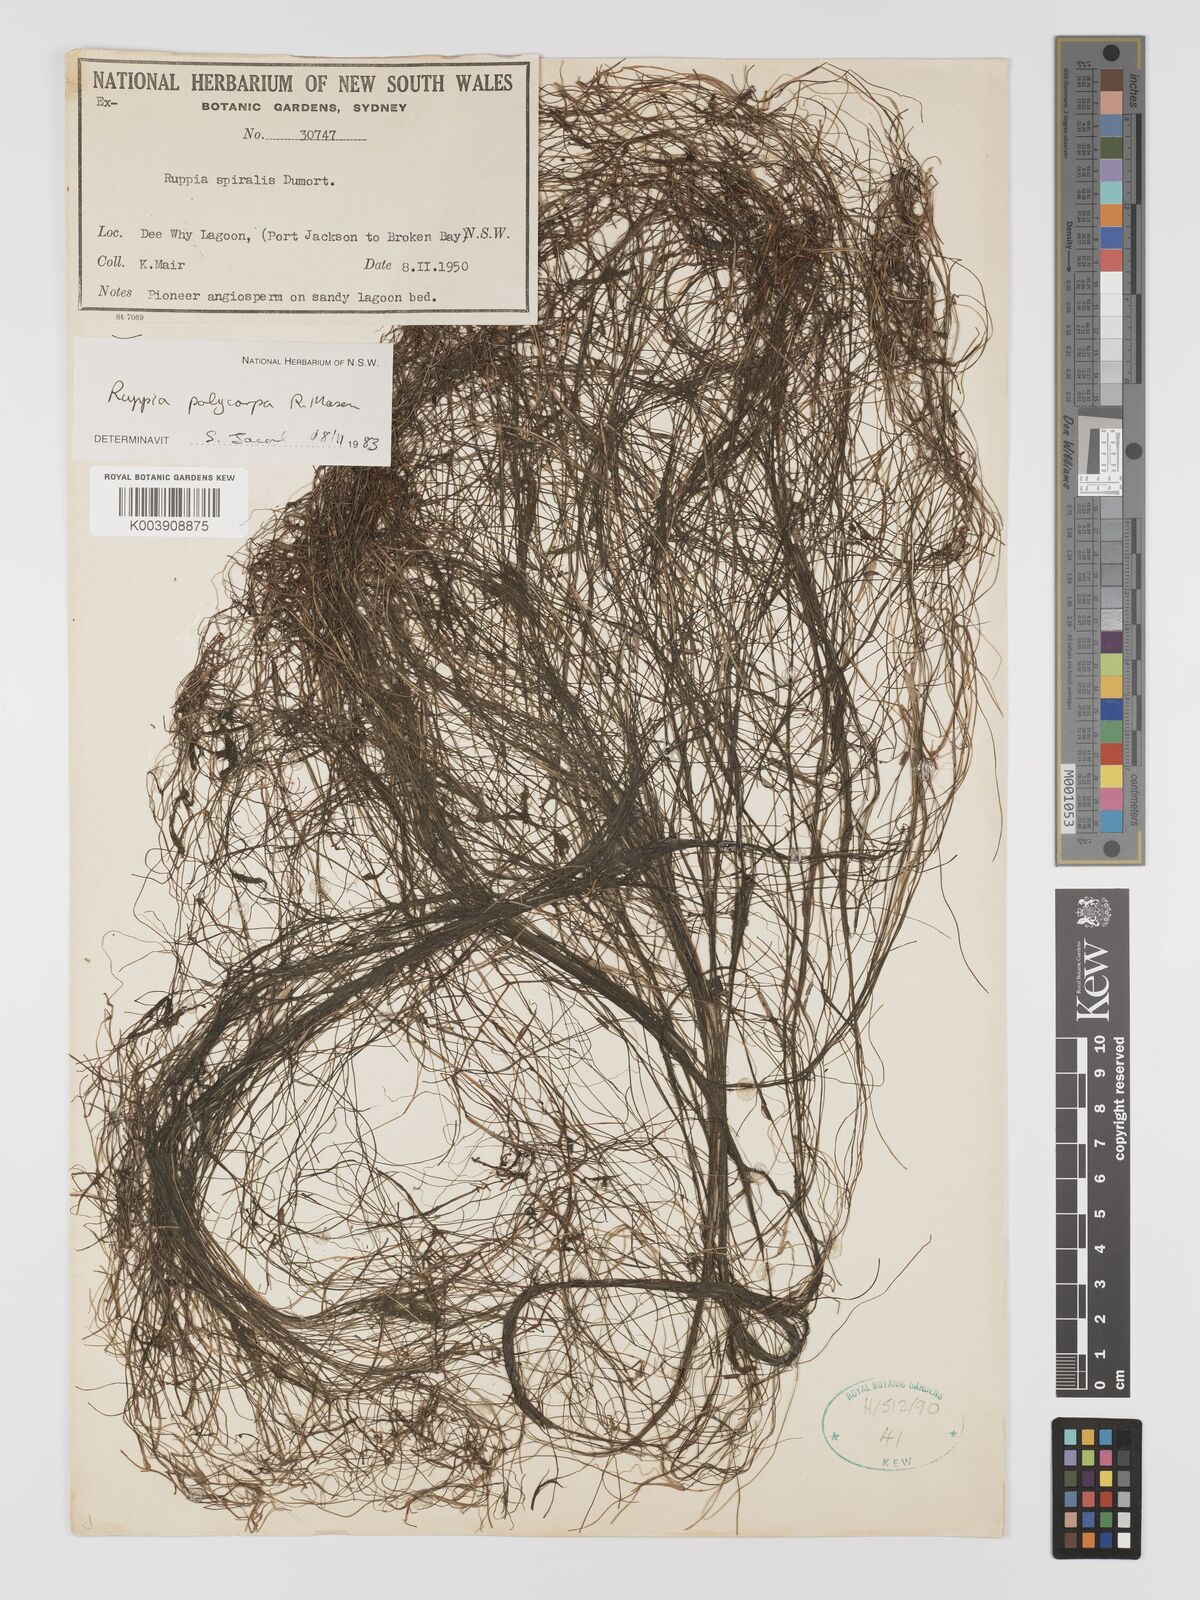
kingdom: Plantae
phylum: Tracheophyta
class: Liliopsida
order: Alismatales
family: Ruppiaceae
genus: Ruppia
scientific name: Ruppia polycarpa
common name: Species code: rp
